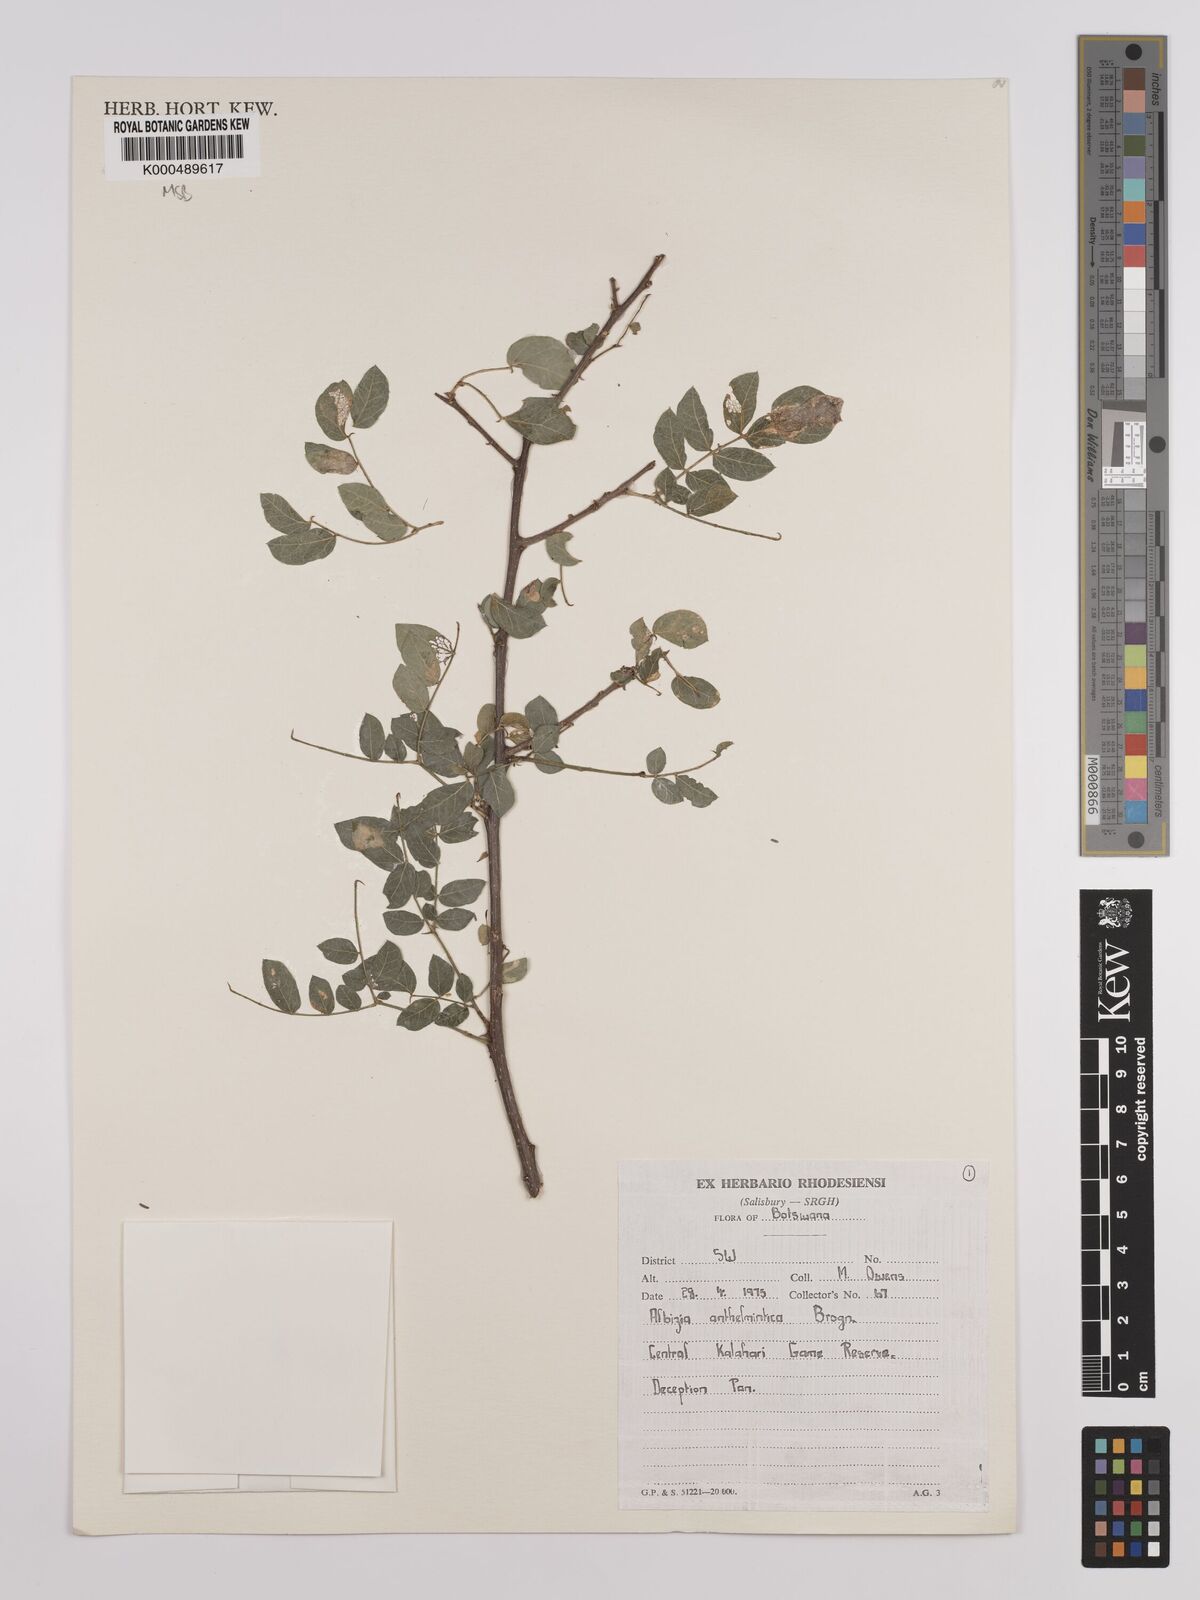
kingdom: Plantae
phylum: Tracheophyta
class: Magnoliopsida
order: Fabales
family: Fabaceae
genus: Albizia
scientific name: Albizia anthelmintica
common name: Worm-bark false-thorn
